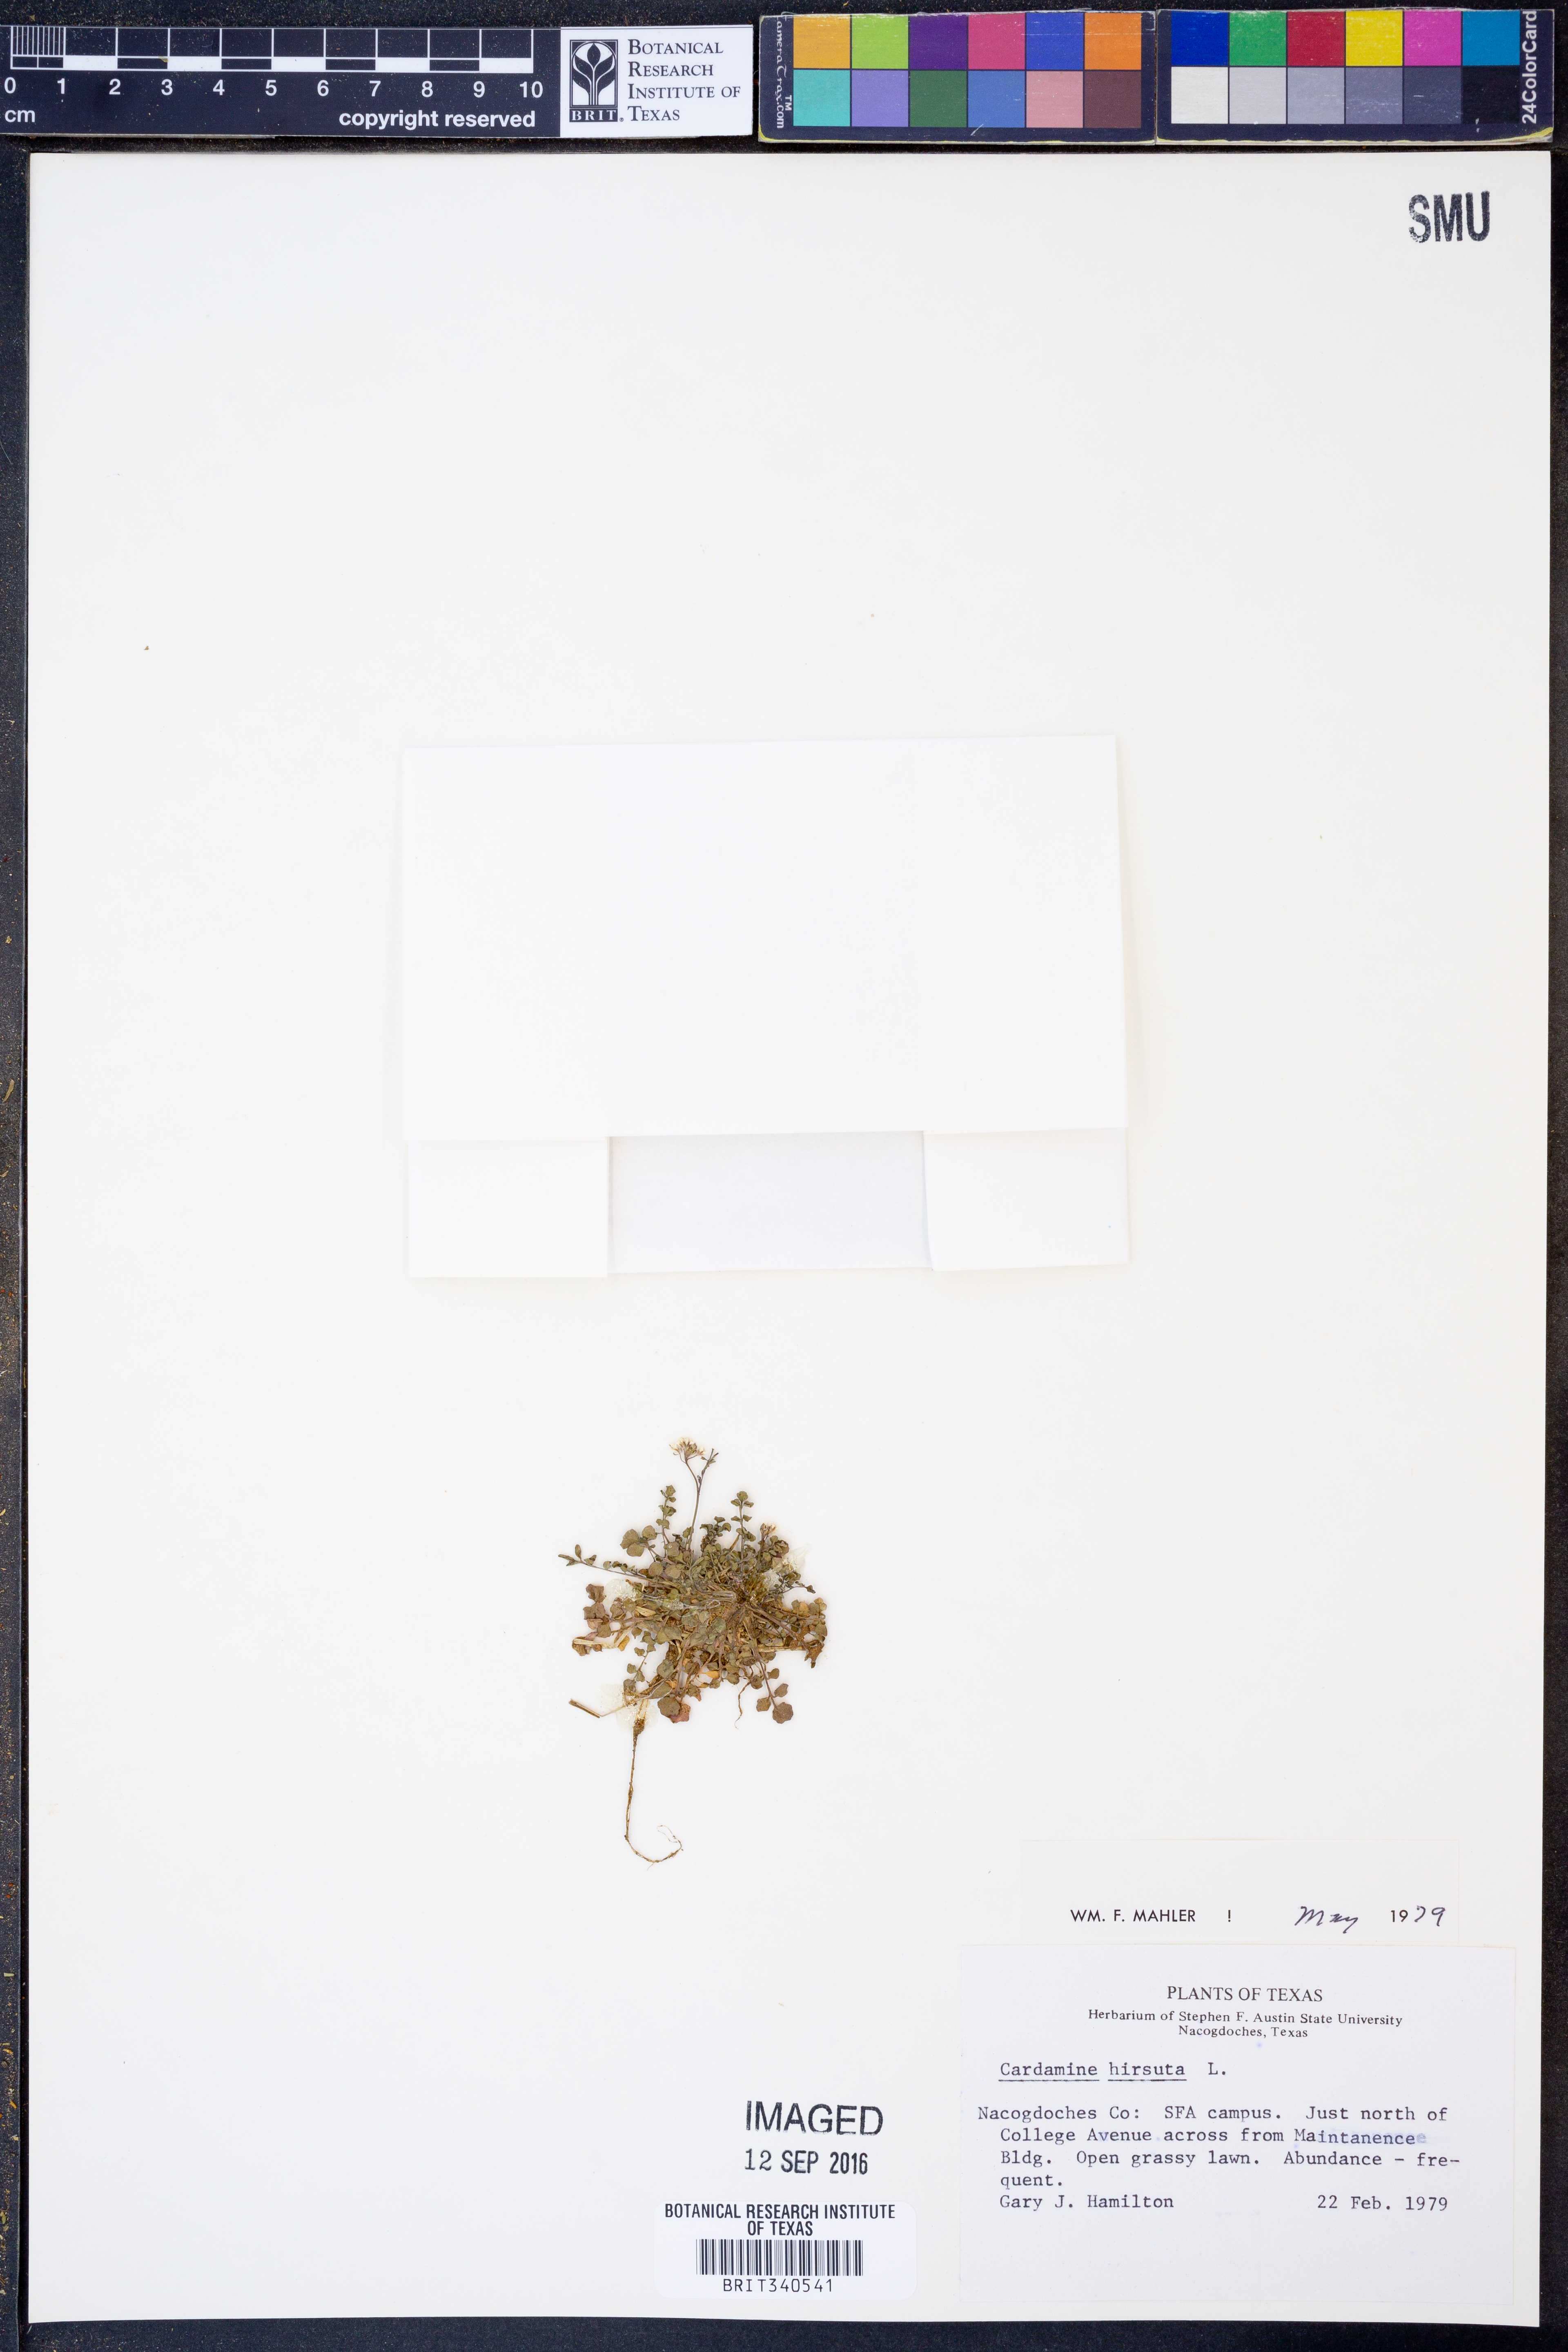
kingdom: Plantae
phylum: Tracheophyta
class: Magnoliopsida
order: Brassicales
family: Brassicaceae
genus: Cardamine
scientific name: Cardamine hirsuta
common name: Hairy bittercress
